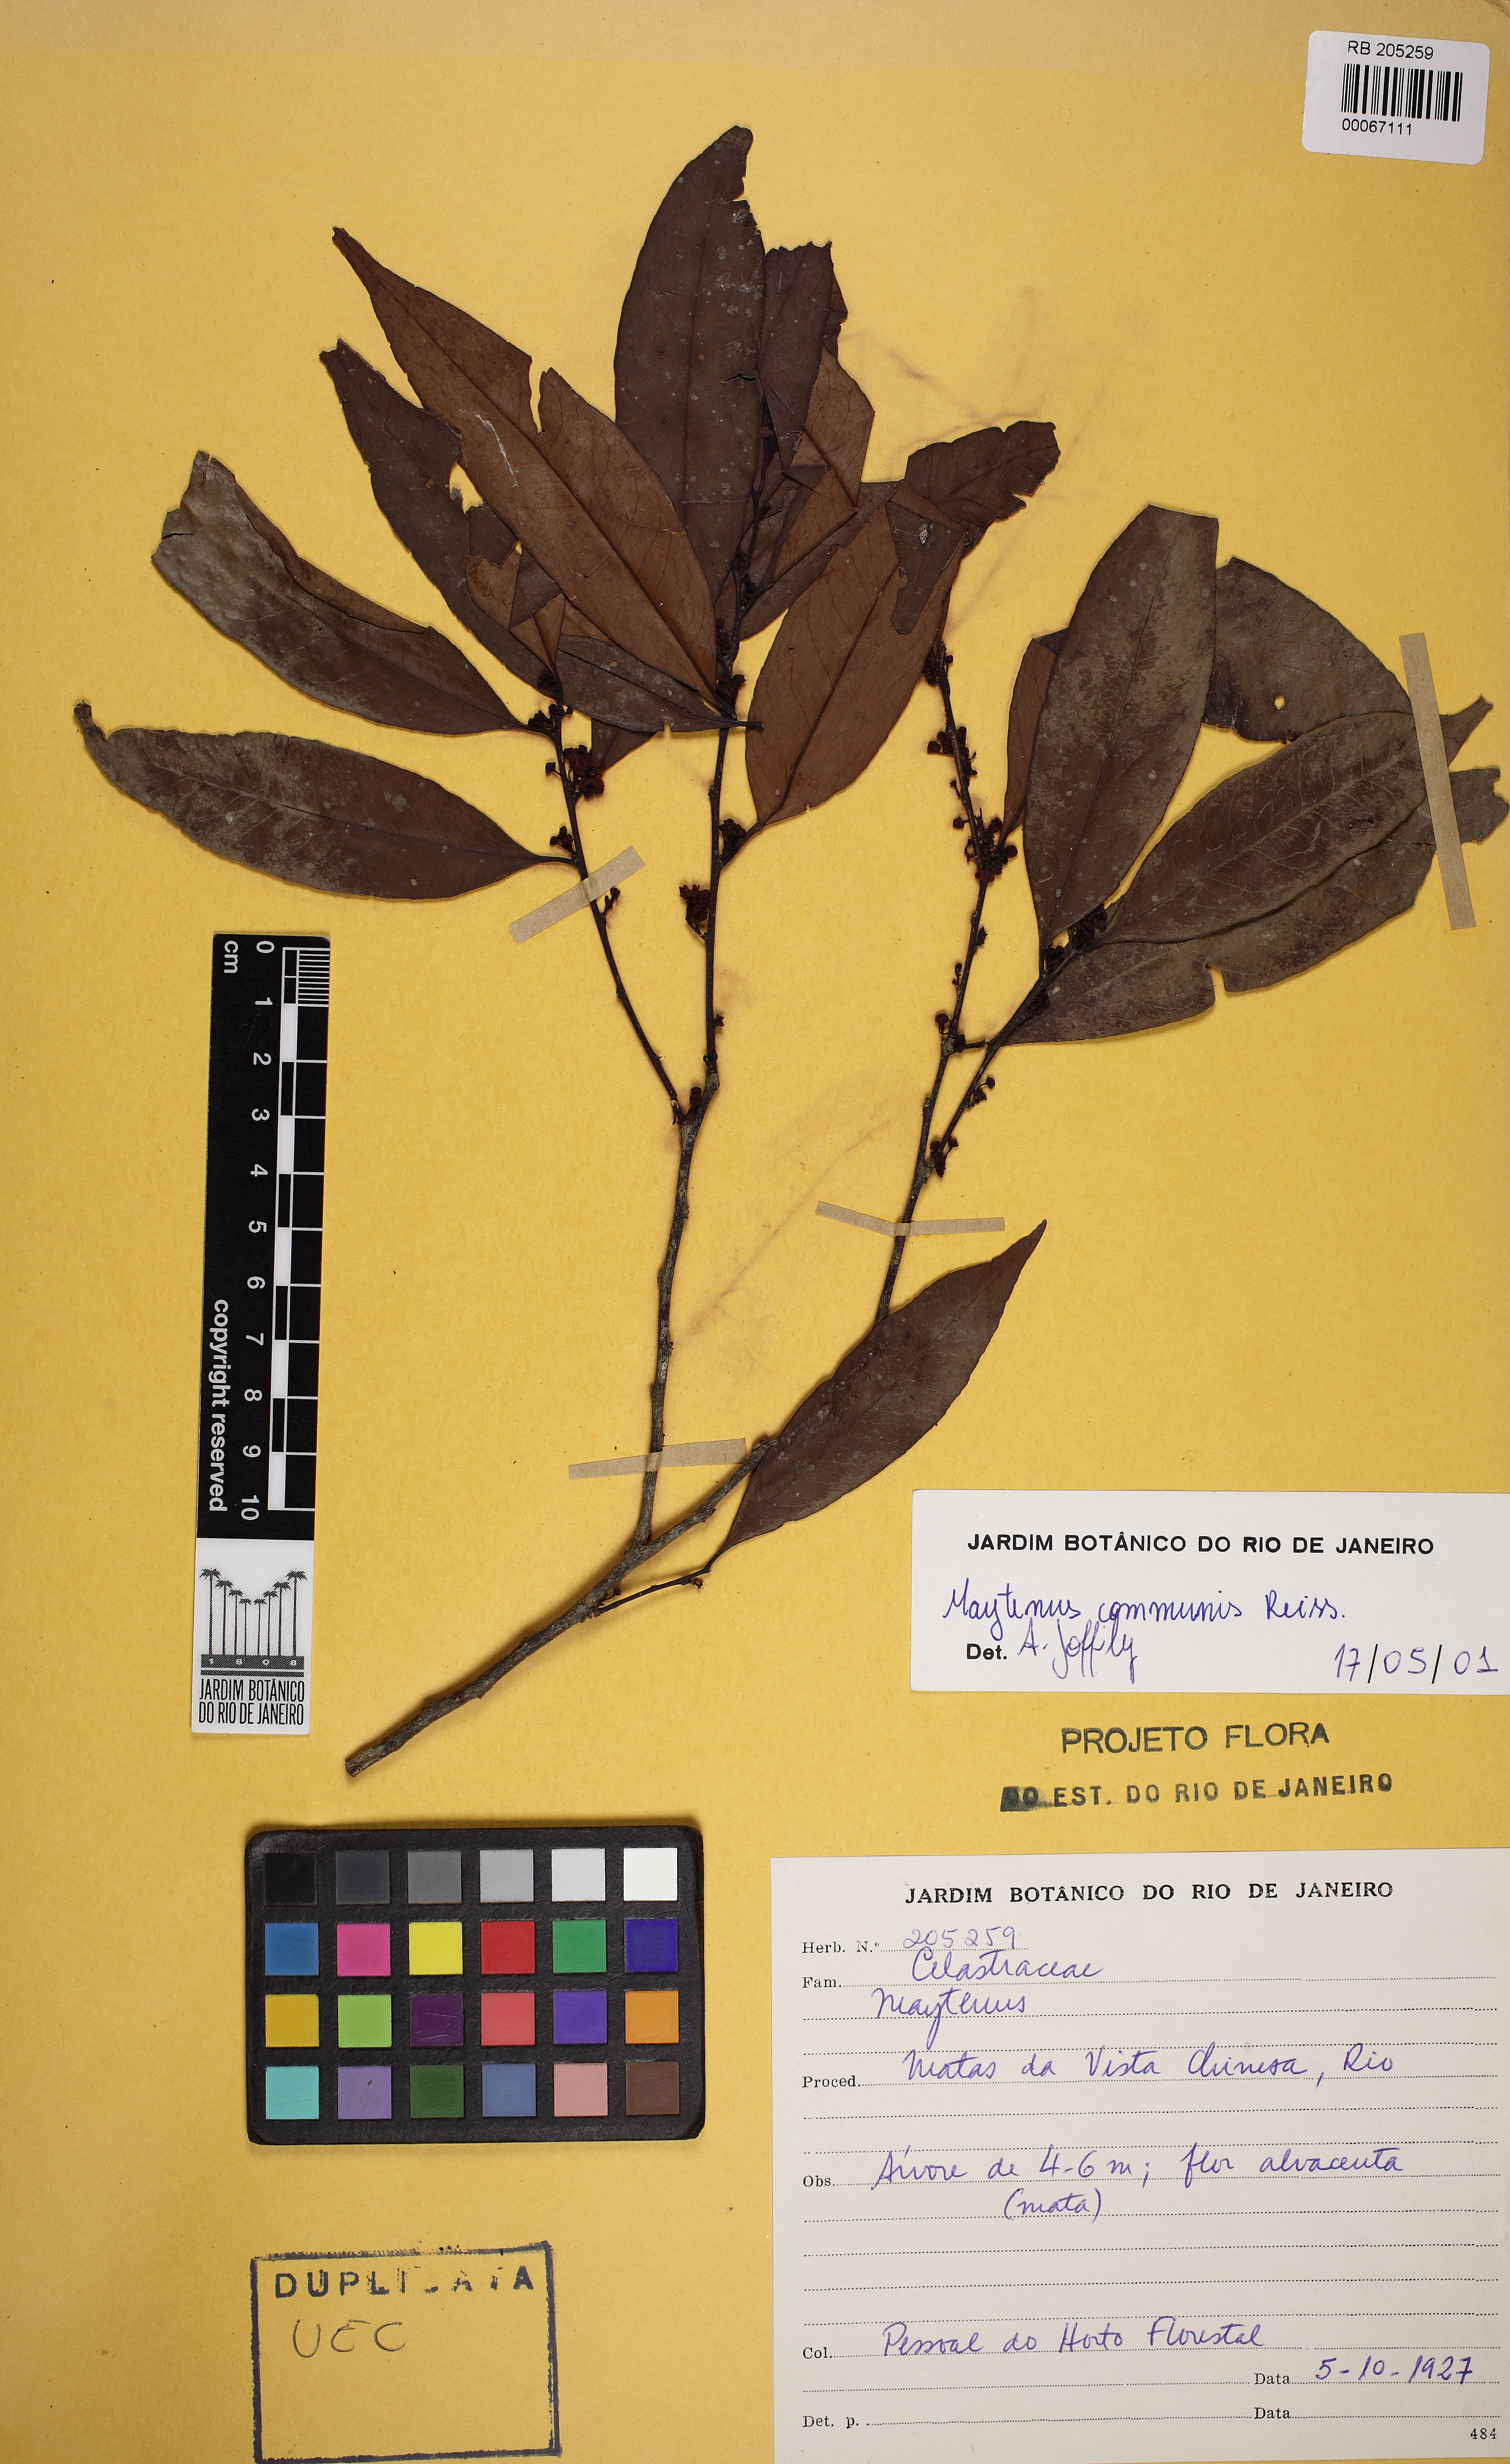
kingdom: Plantae
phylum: Tracheophyta
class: Magnoliopsida
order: Celastrales
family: Celastraceae
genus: Monteverdia
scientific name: Monteverdia communis
